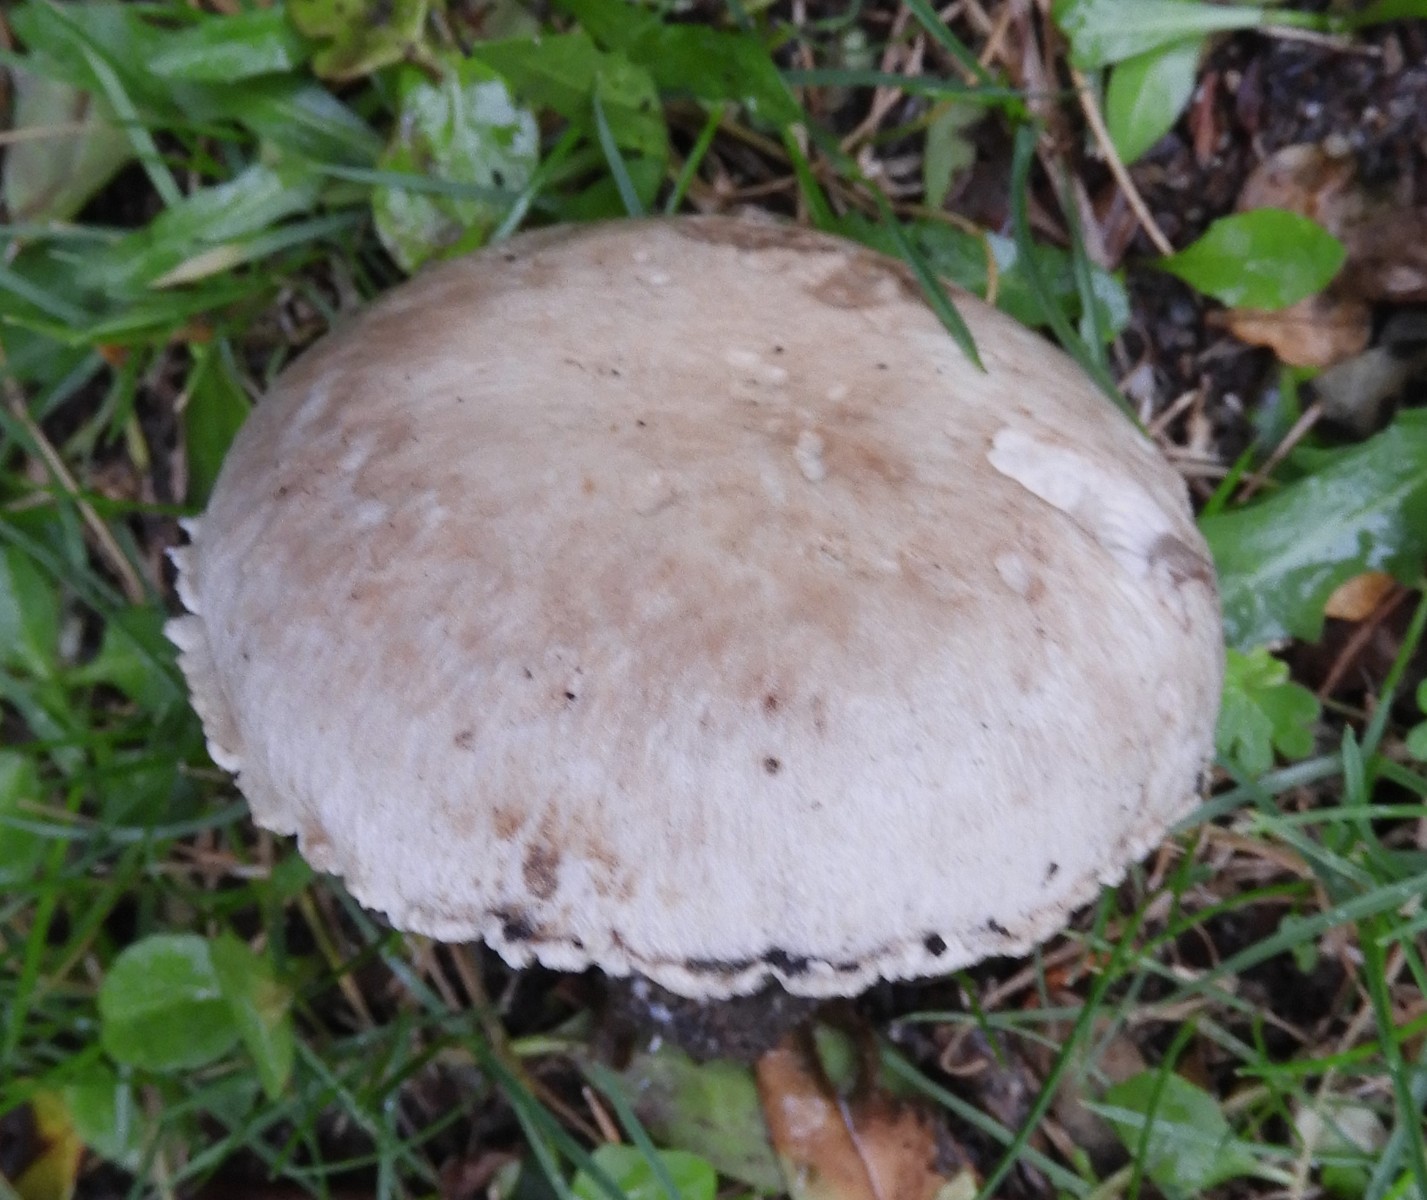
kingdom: Fungi
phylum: Basidiomycota
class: Agaricomycetes
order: Agaricales
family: Agaricaceae
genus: Agaricus
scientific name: Agaricus campestris
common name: mark-champignon
